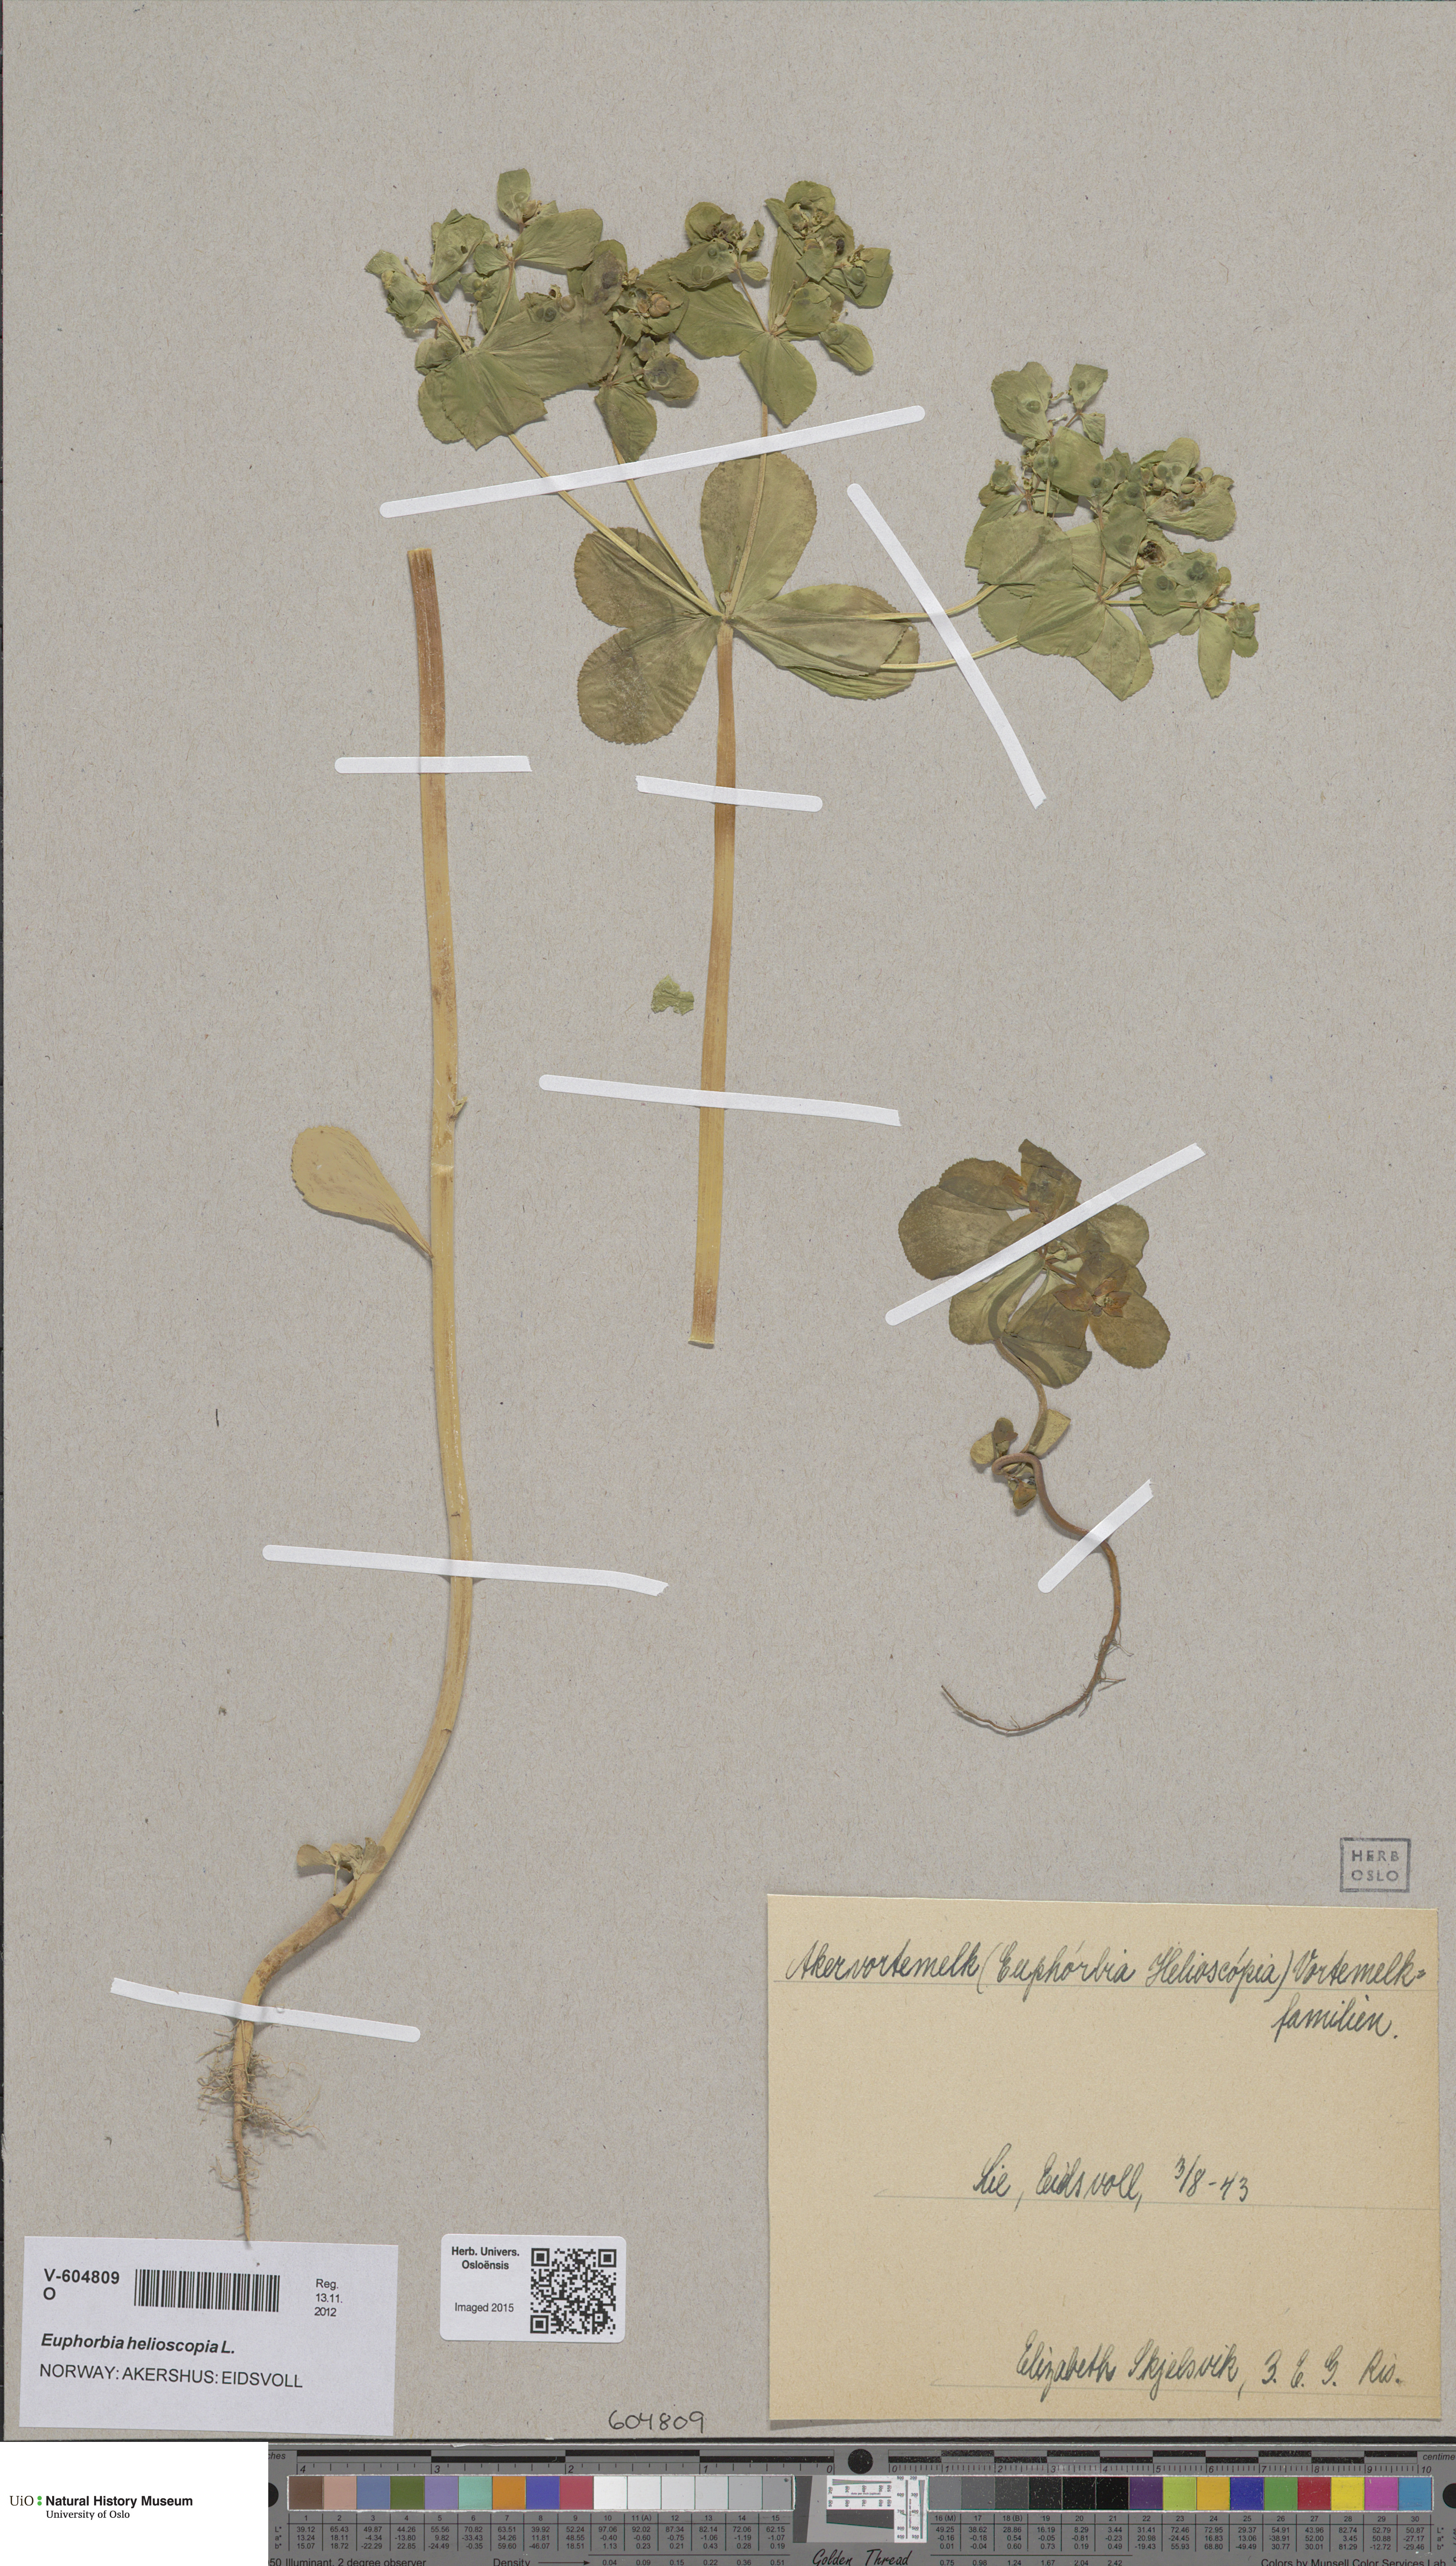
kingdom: Plantae
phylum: Tracheophyta
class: Magnoliopsida
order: Malpighiales
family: Euphorbiaceae
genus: Euphorbia
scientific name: Euphorbia helioscopia
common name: Sun spurge
